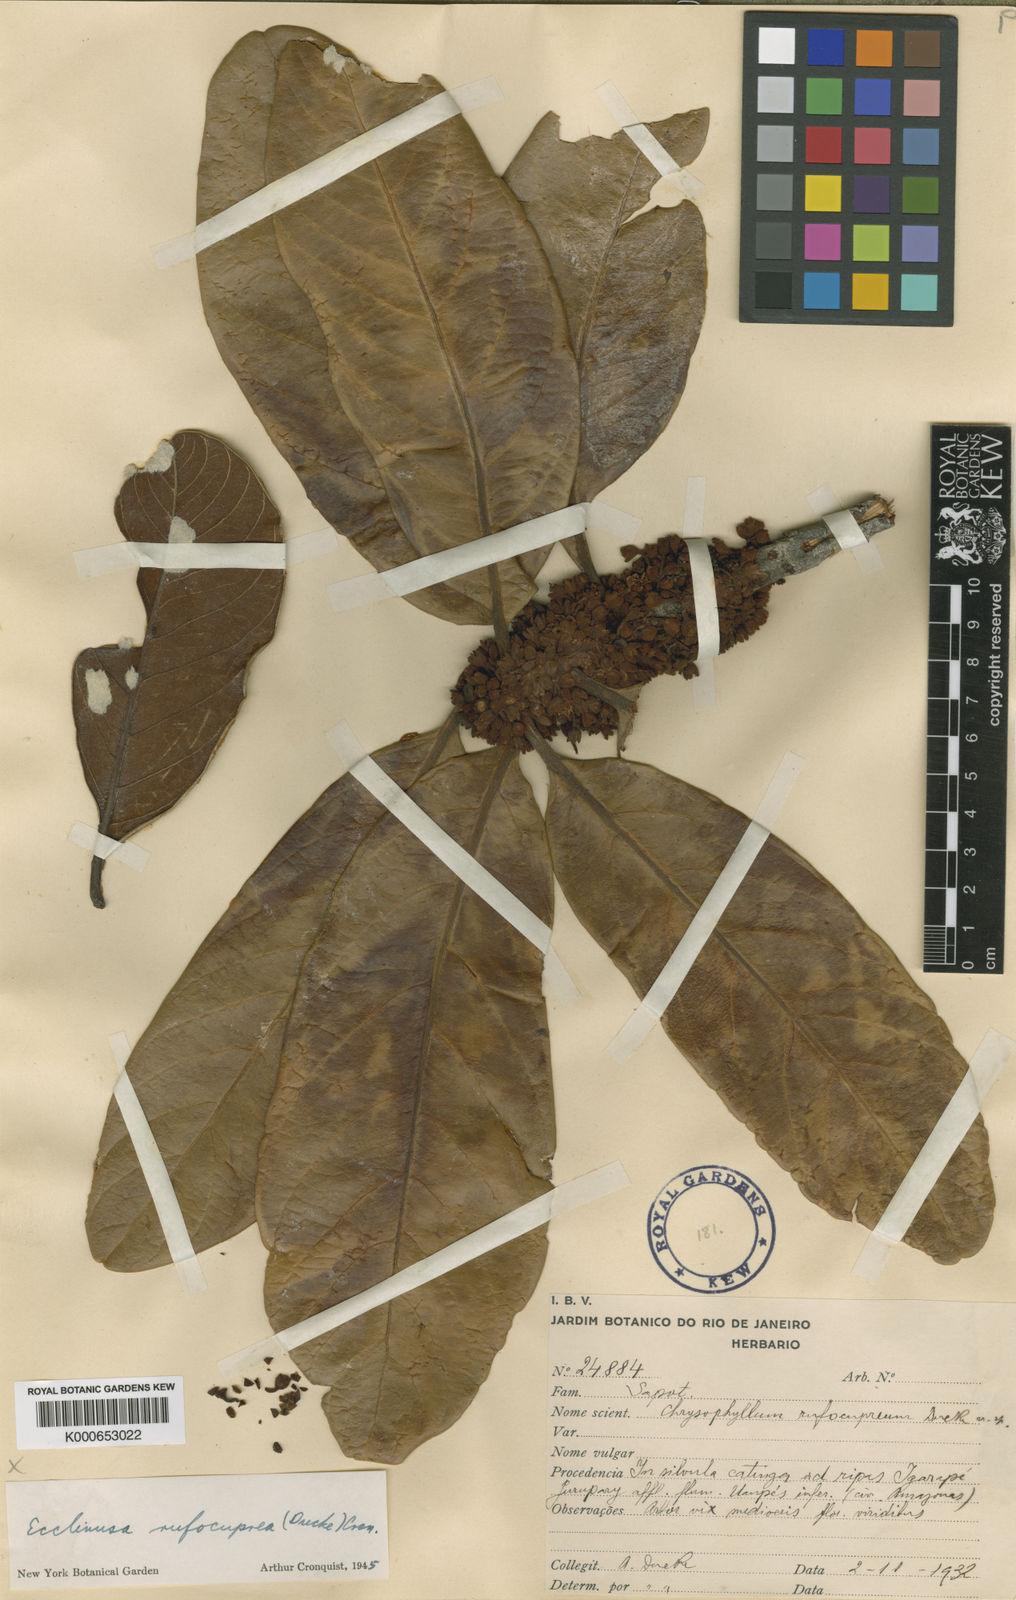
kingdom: Plantae
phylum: Tracheophyta
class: Magnoliopsida
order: Ericales
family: Sapotaceae
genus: Chrysophyllum
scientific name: Chrysophyllum eximium
